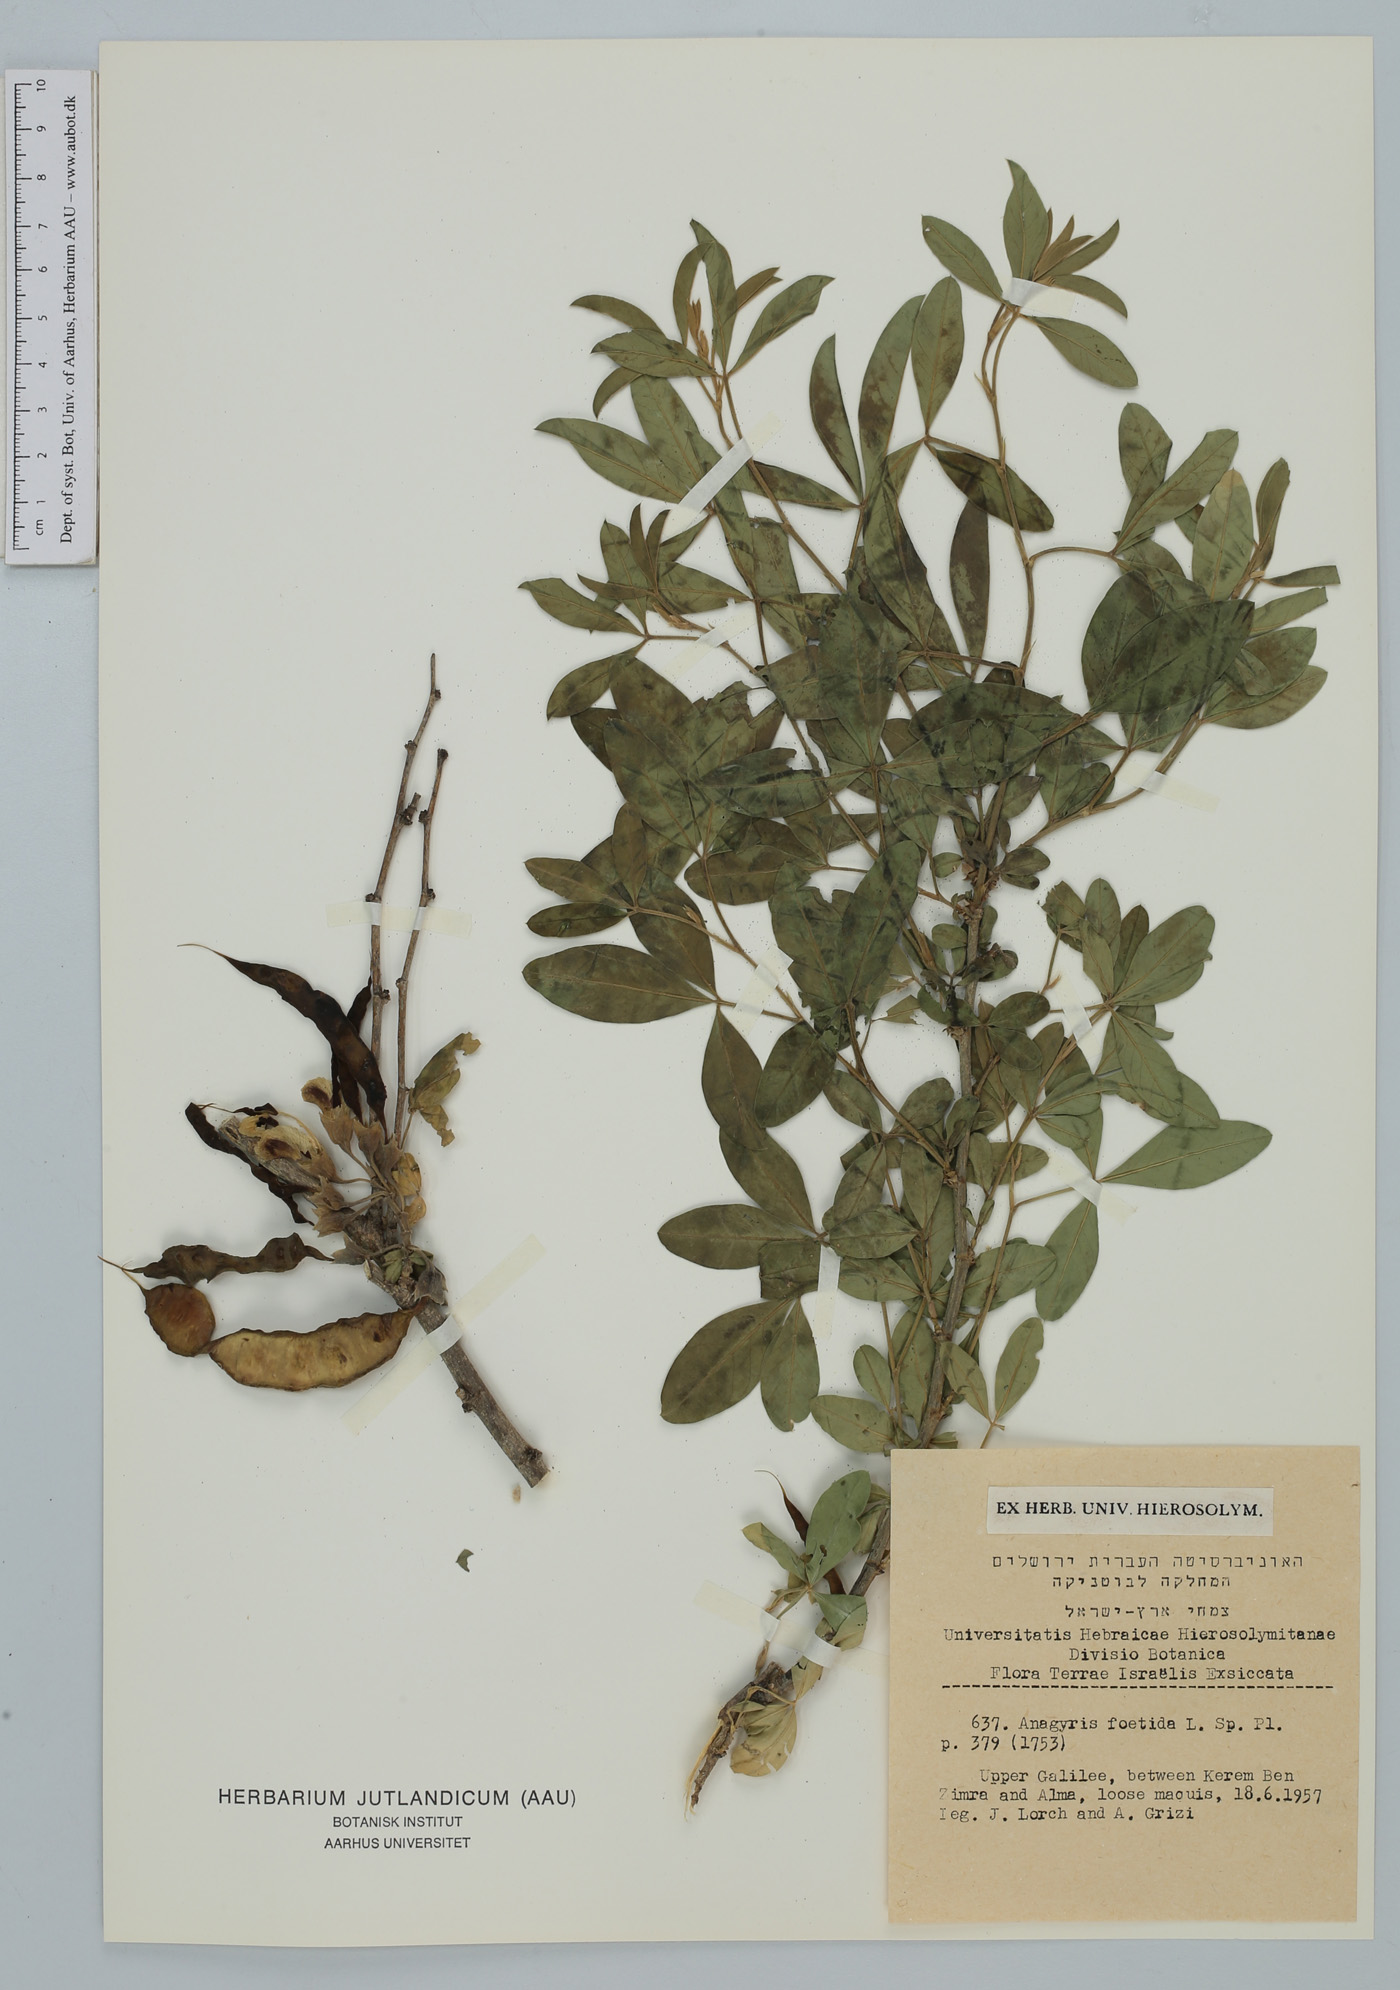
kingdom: Plantae
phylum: Tracheophyta
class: Magnoliopsida
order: Fabales
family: Fabaceae
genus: Anagyris
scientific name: Anagyris foetida
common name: Stinking bean trefoil
